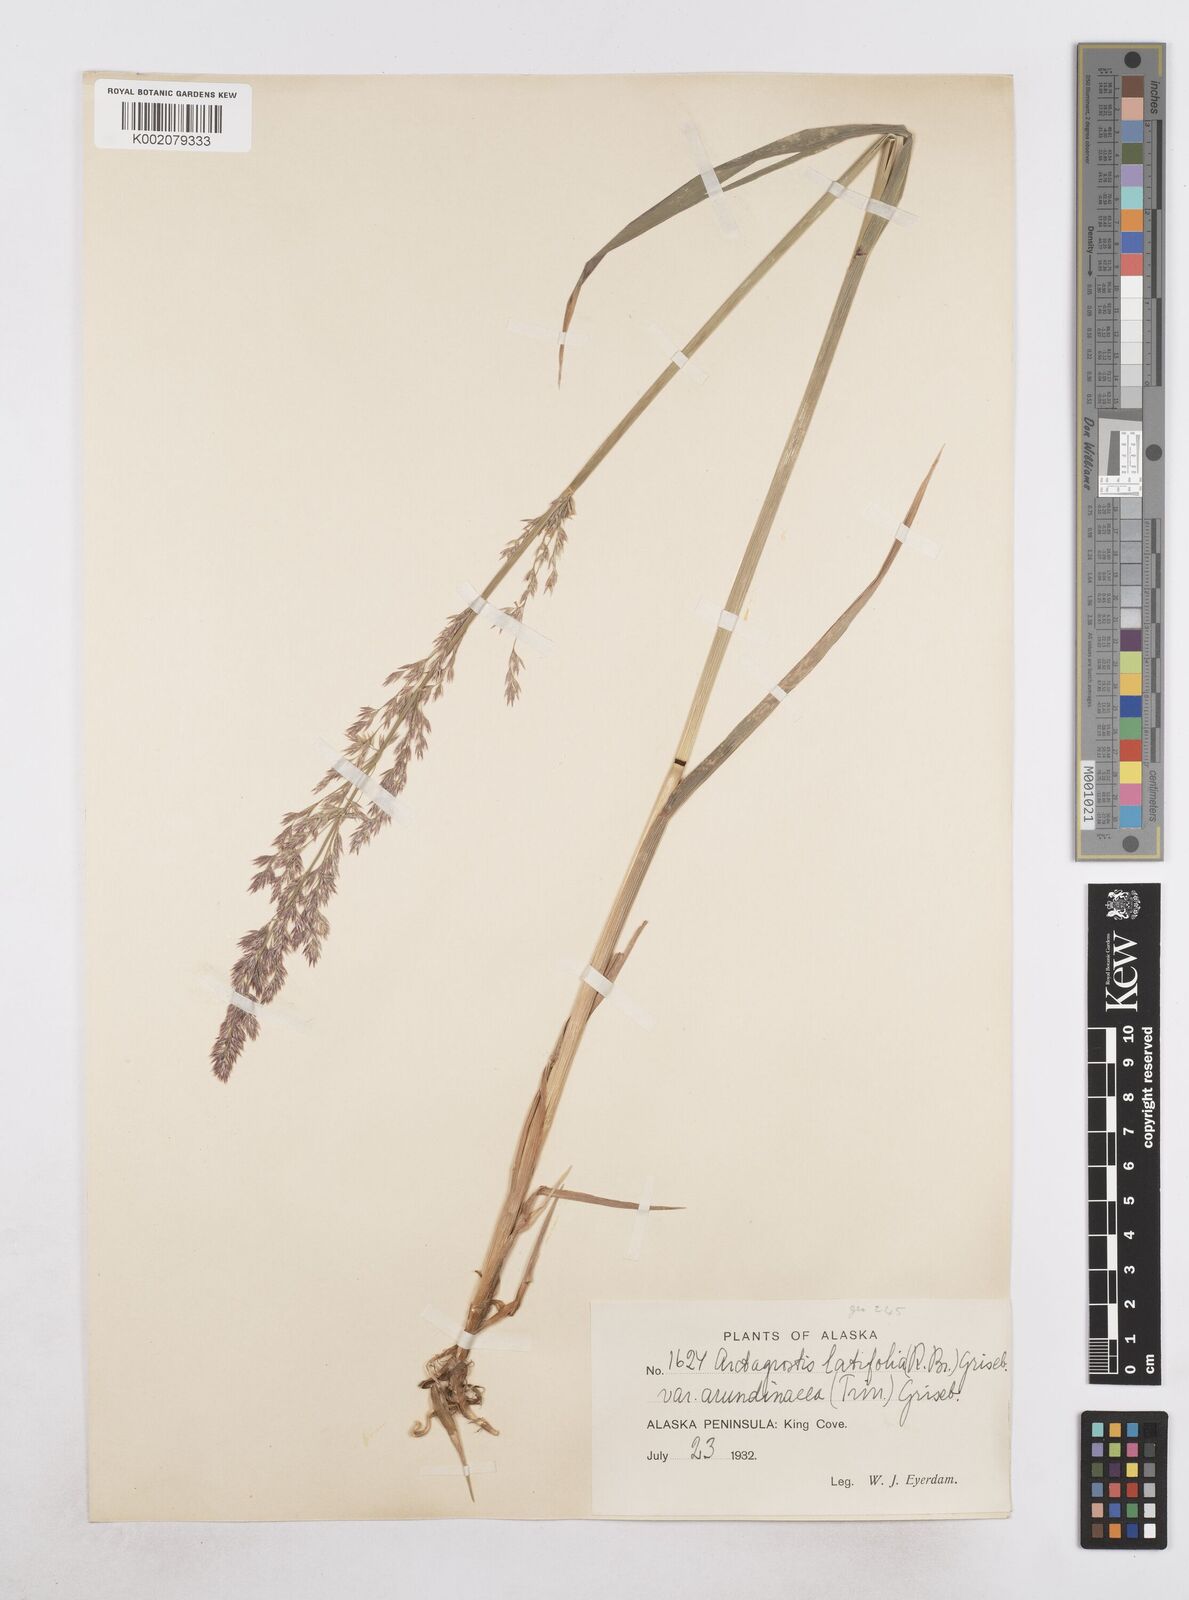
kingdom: Plantae
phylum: Tracheophyta
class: Liliopsida
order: Poales
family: Poaceae
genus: Arctagrostis
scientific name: Arctagrostis arundinacea
